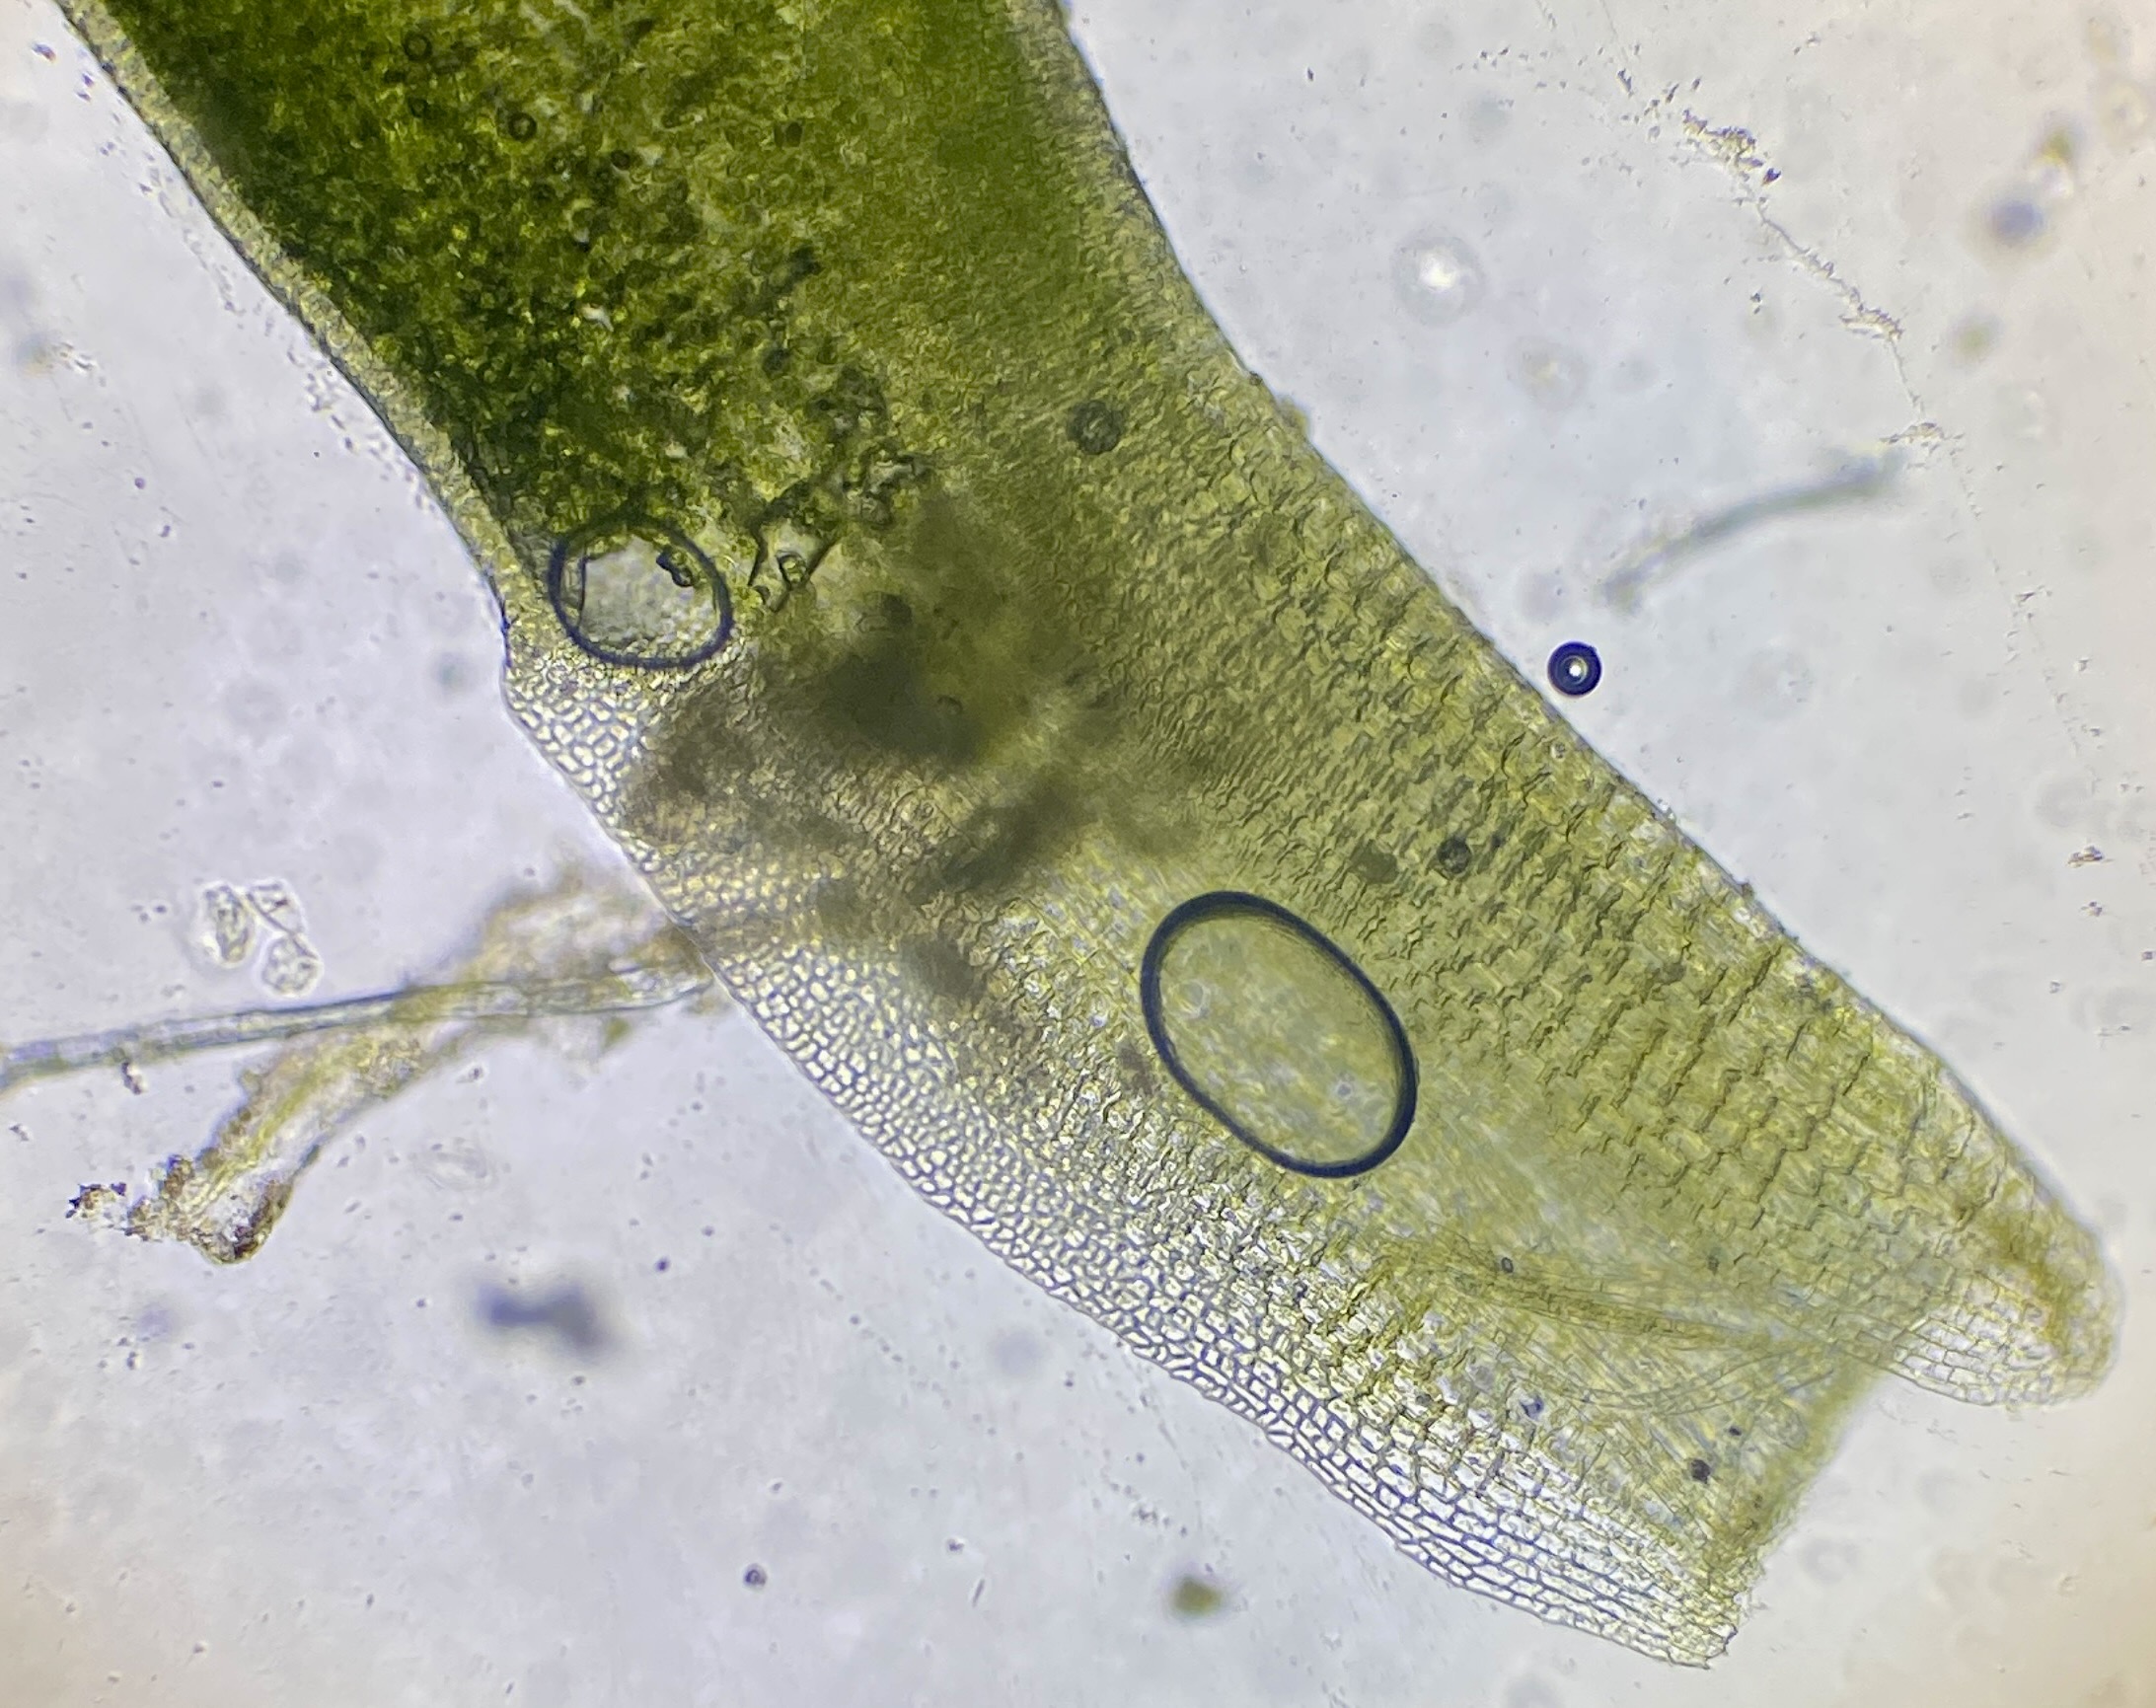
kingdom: Plantae
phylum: Bryophyta
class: Bryopsida
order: Pottiales
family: Pottiaceae
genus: Aloina
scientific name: Aloina aloides
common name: Spidsbladet tøffelmos
